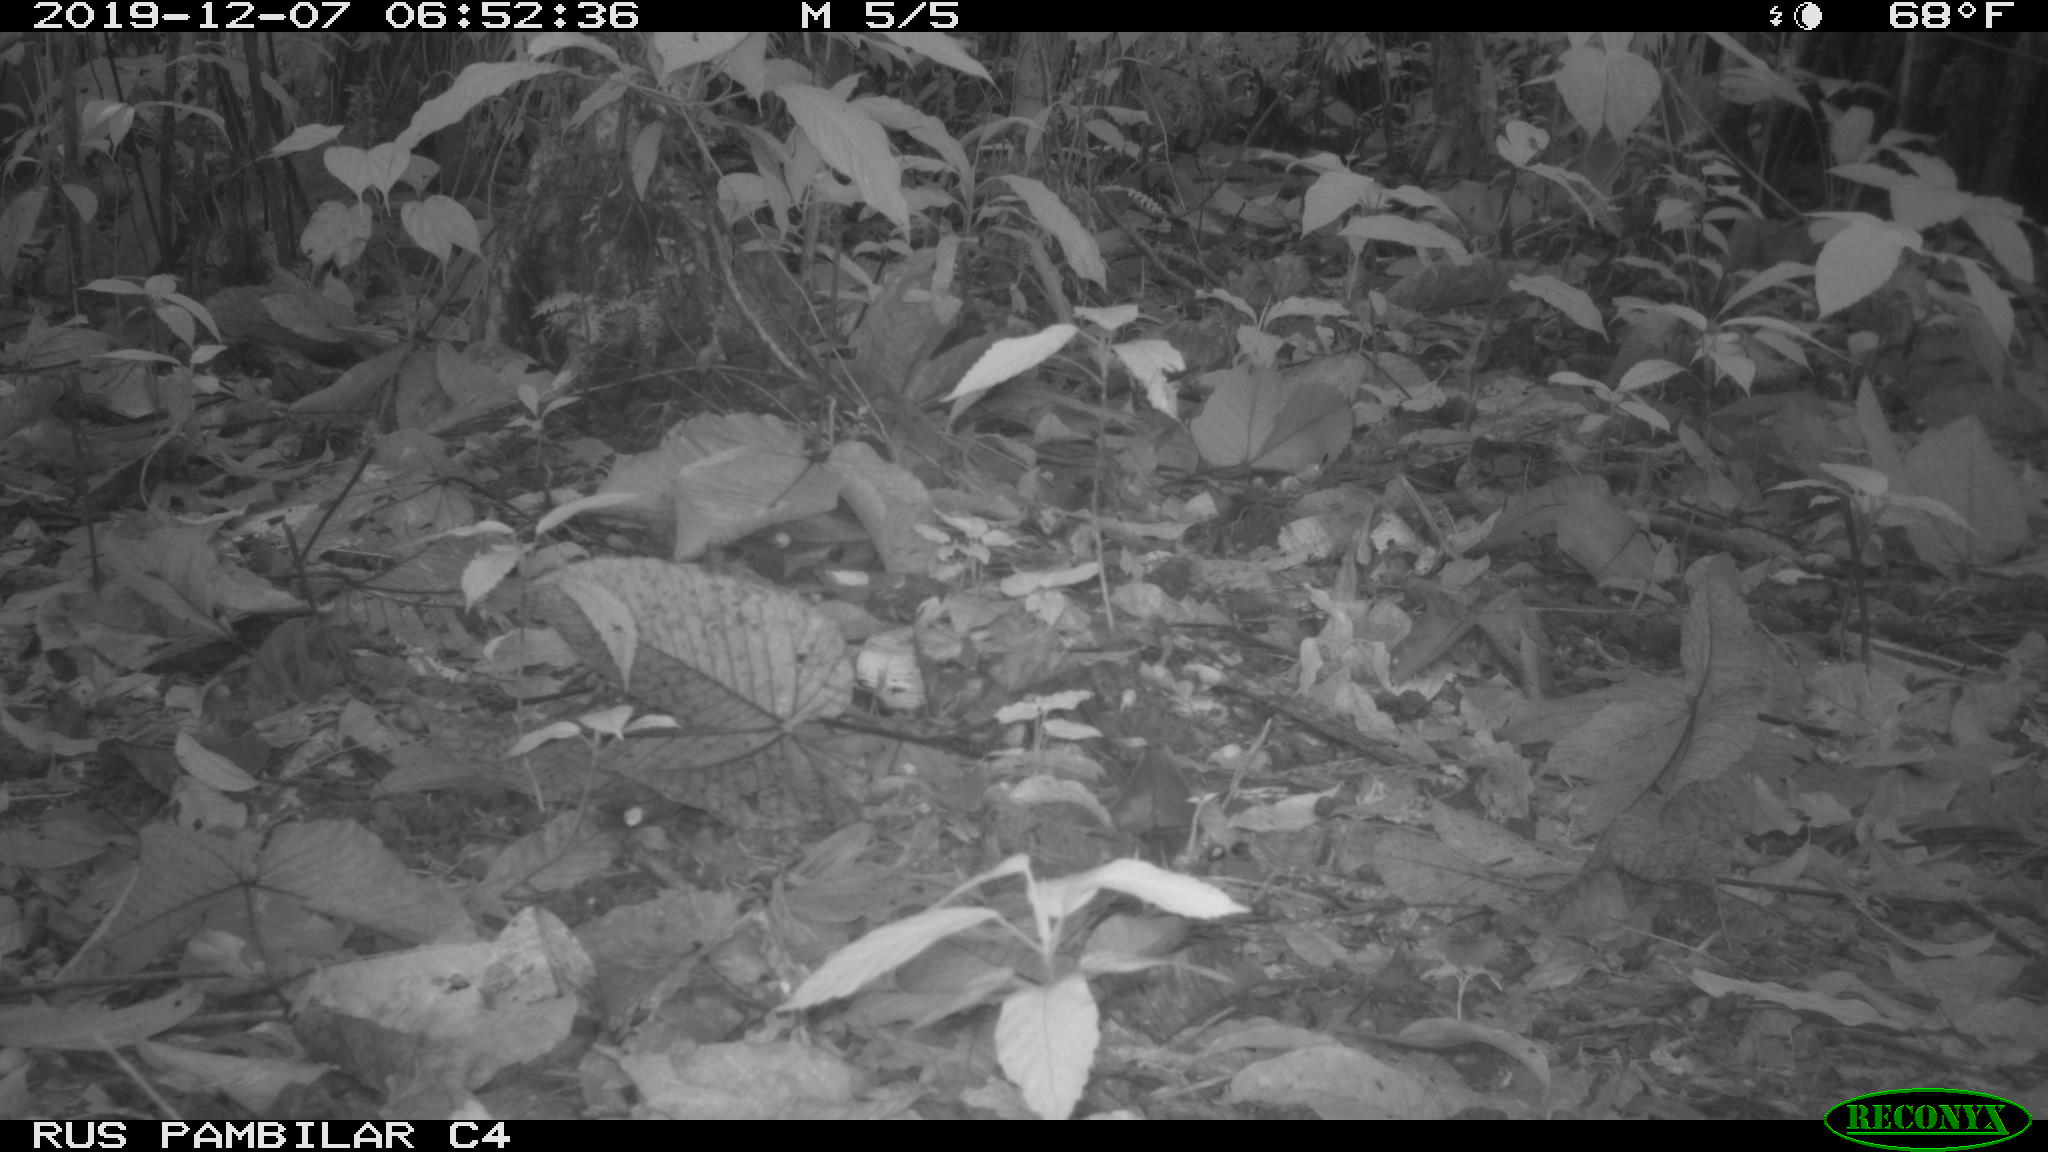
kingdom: Animalia
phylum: Chordata
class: Mammalia
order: Rodentia
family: Dasyproctidae
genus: Dasyprocta
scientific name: Dasyprocta punctata
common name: Central american agouti
